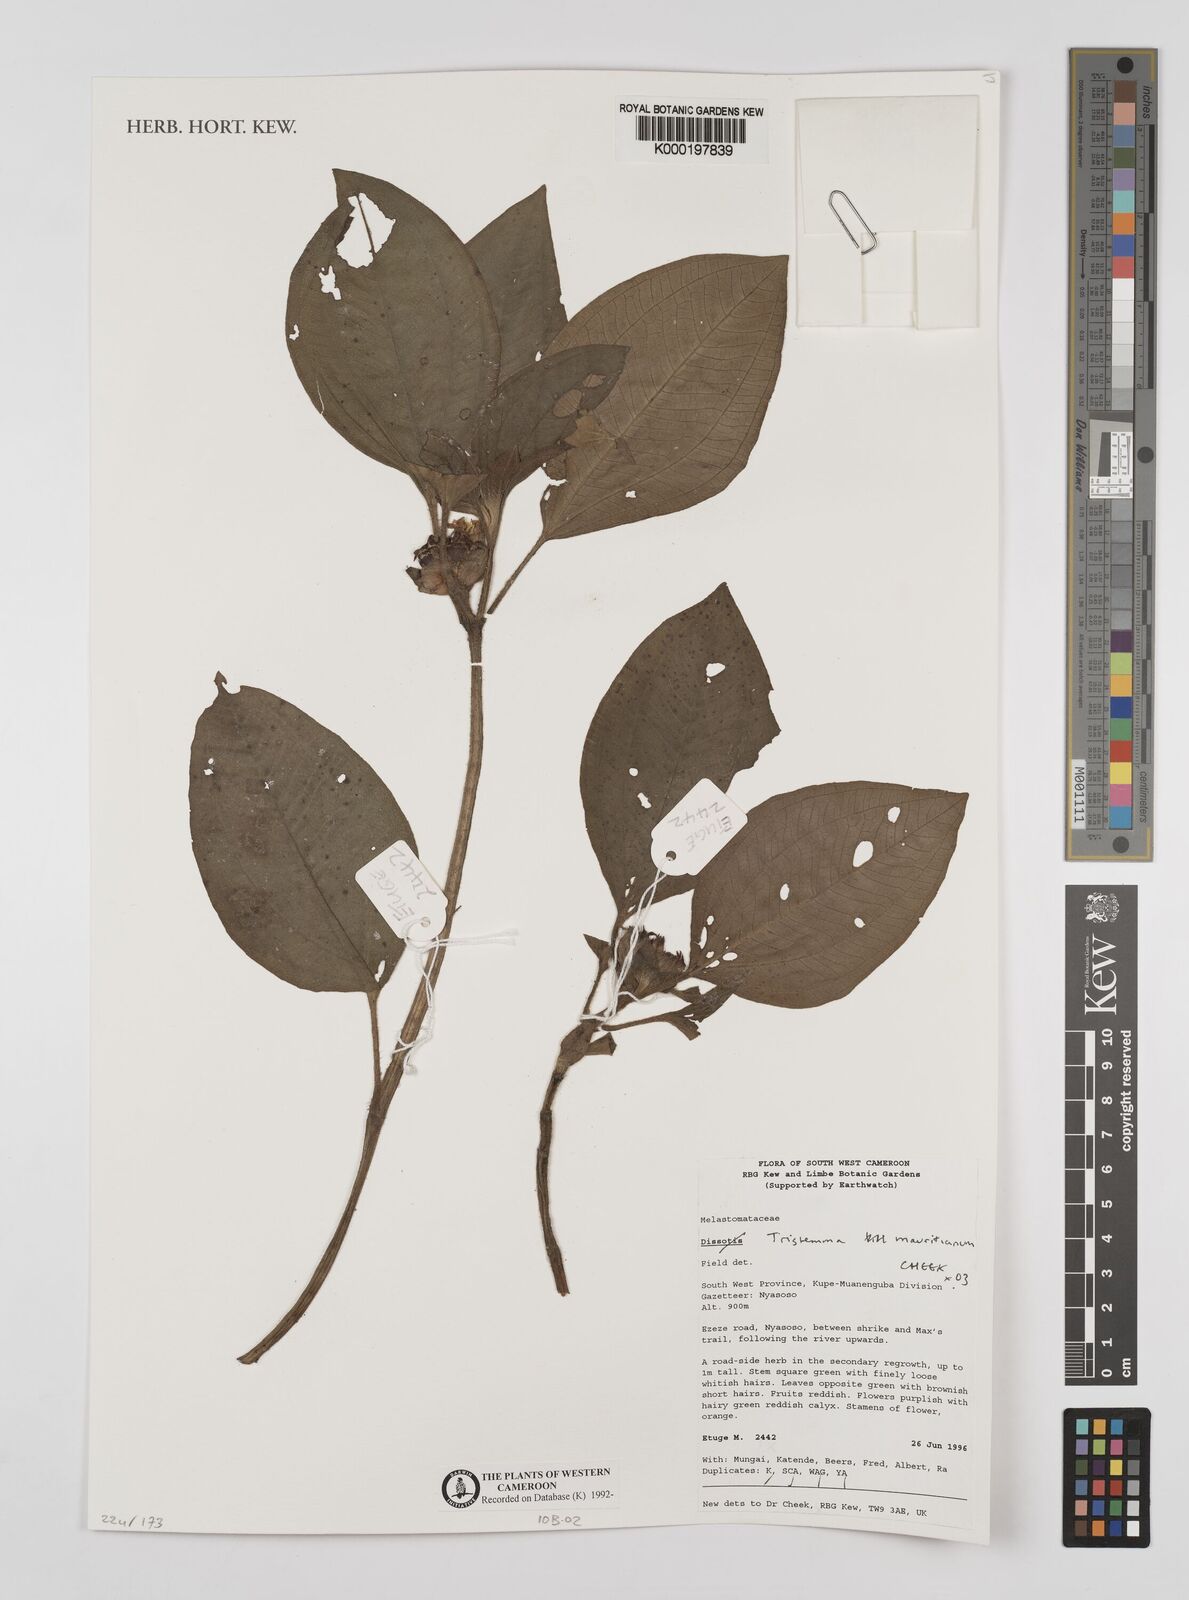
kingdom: Plantae
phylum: Tracheophyta
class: Magnoliopsida
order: Myrtales
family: Melastomataceae
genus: Tristemma
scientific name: Tristemma
